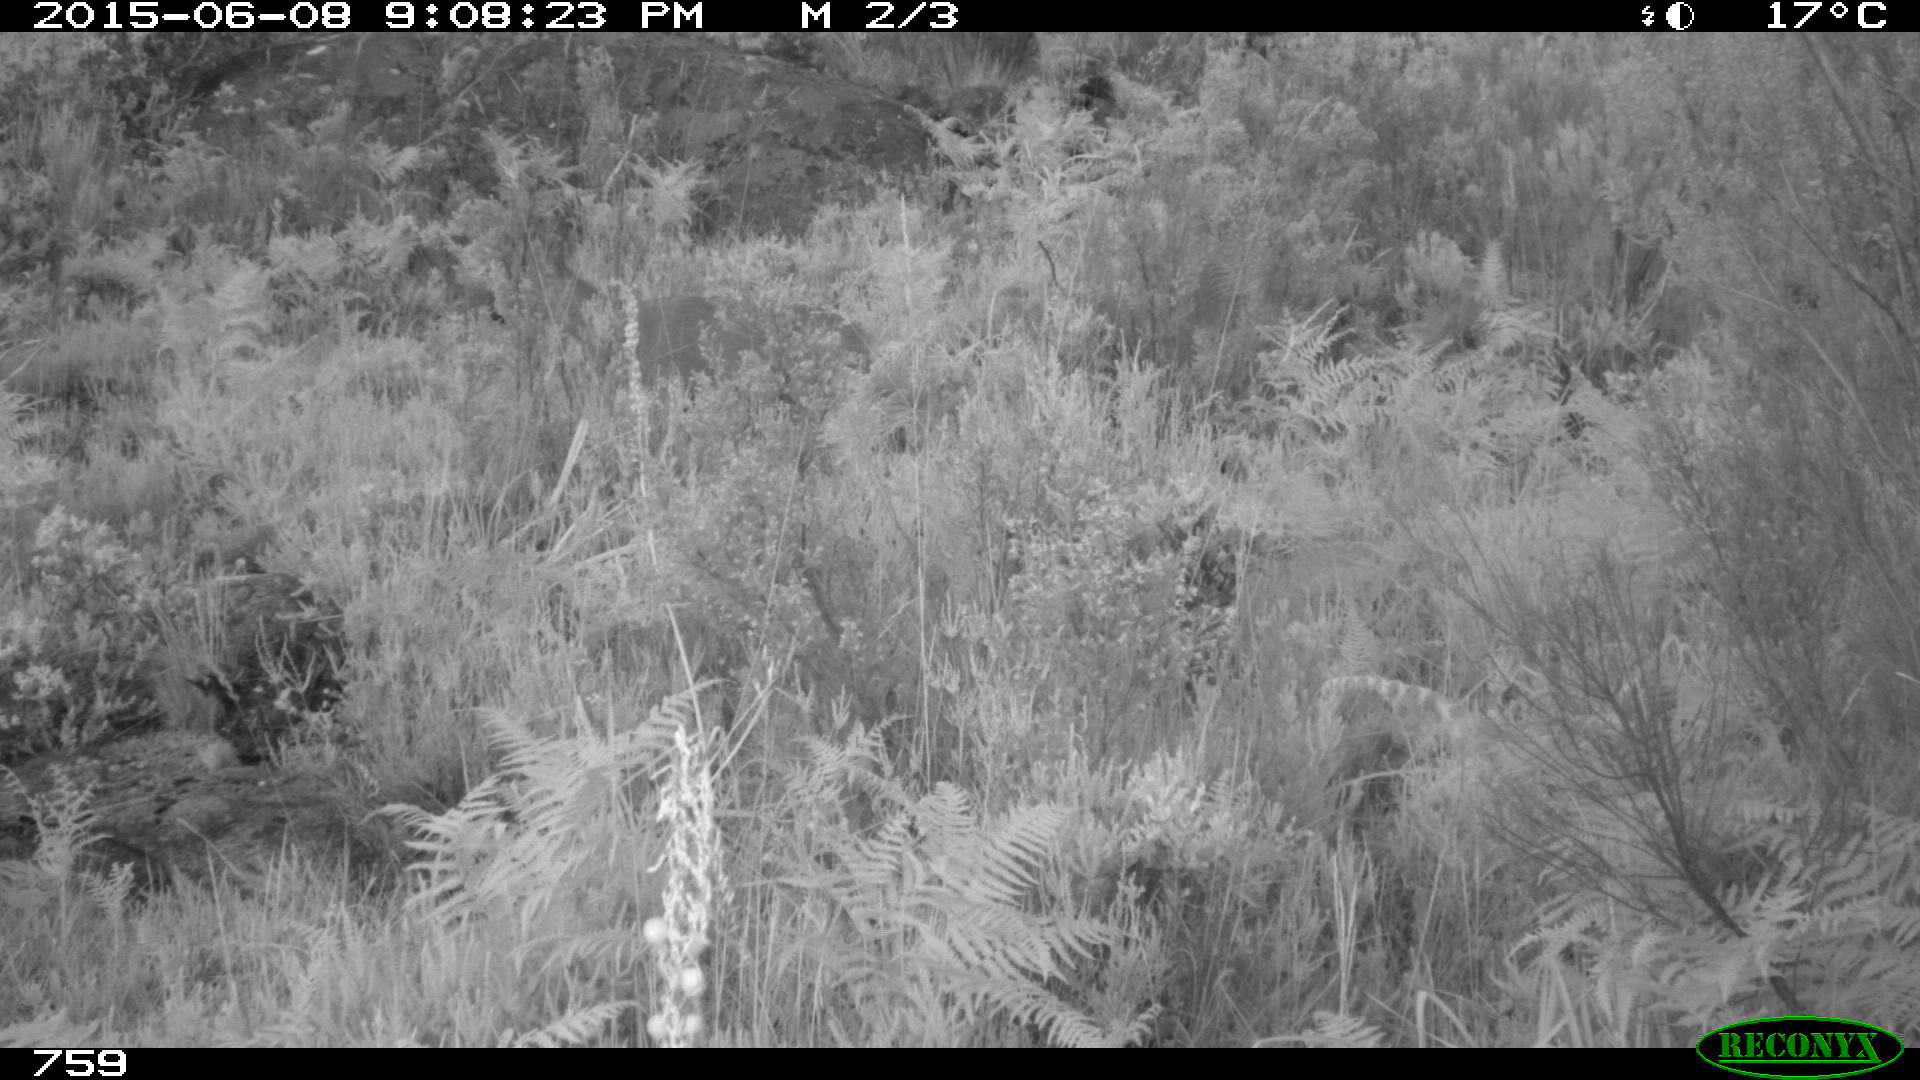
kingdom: Animalia
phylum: Chordata
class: Mammalia
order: Artiodactyla
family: Cervidae
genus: Capreolus
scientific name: Capreolus capreolus
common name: Western roe deer
